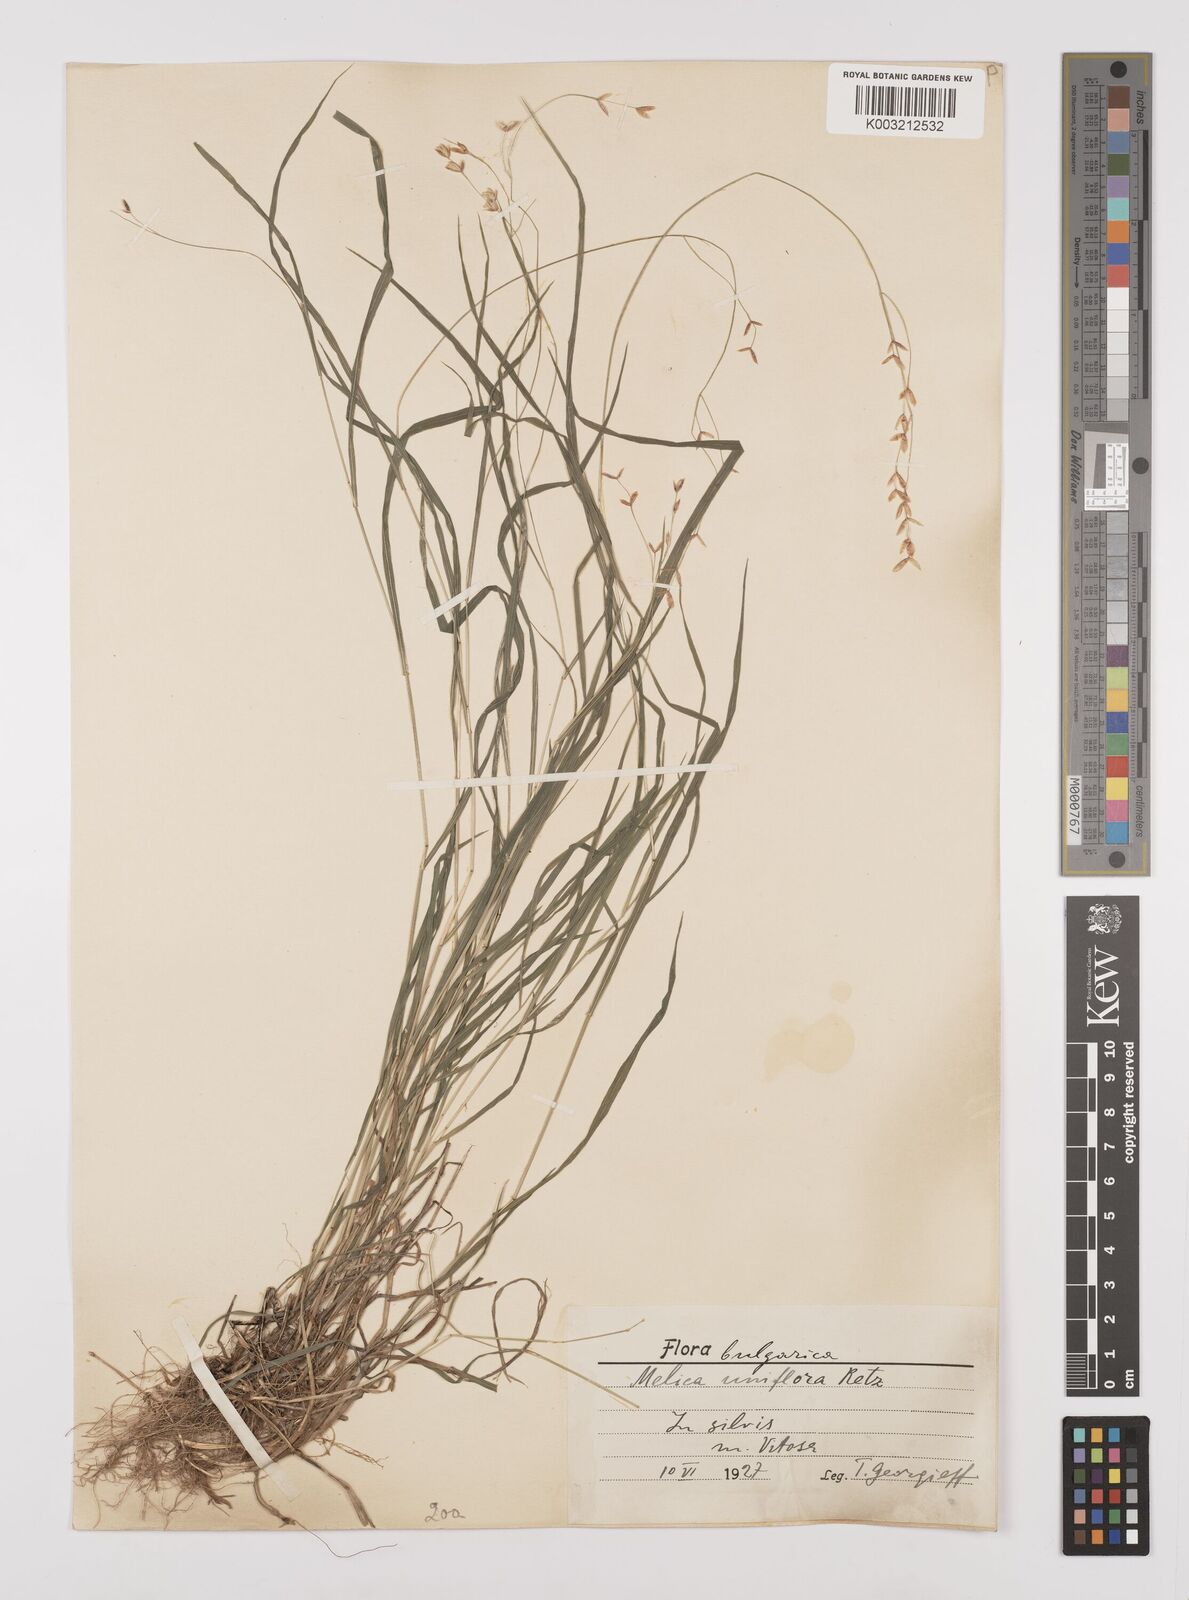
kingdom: Plantae
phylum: Tracheophyta
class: Liliopsida
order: Poales
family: Poaceae
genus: Melica
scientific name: Melica uniflora
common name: Wood melick
